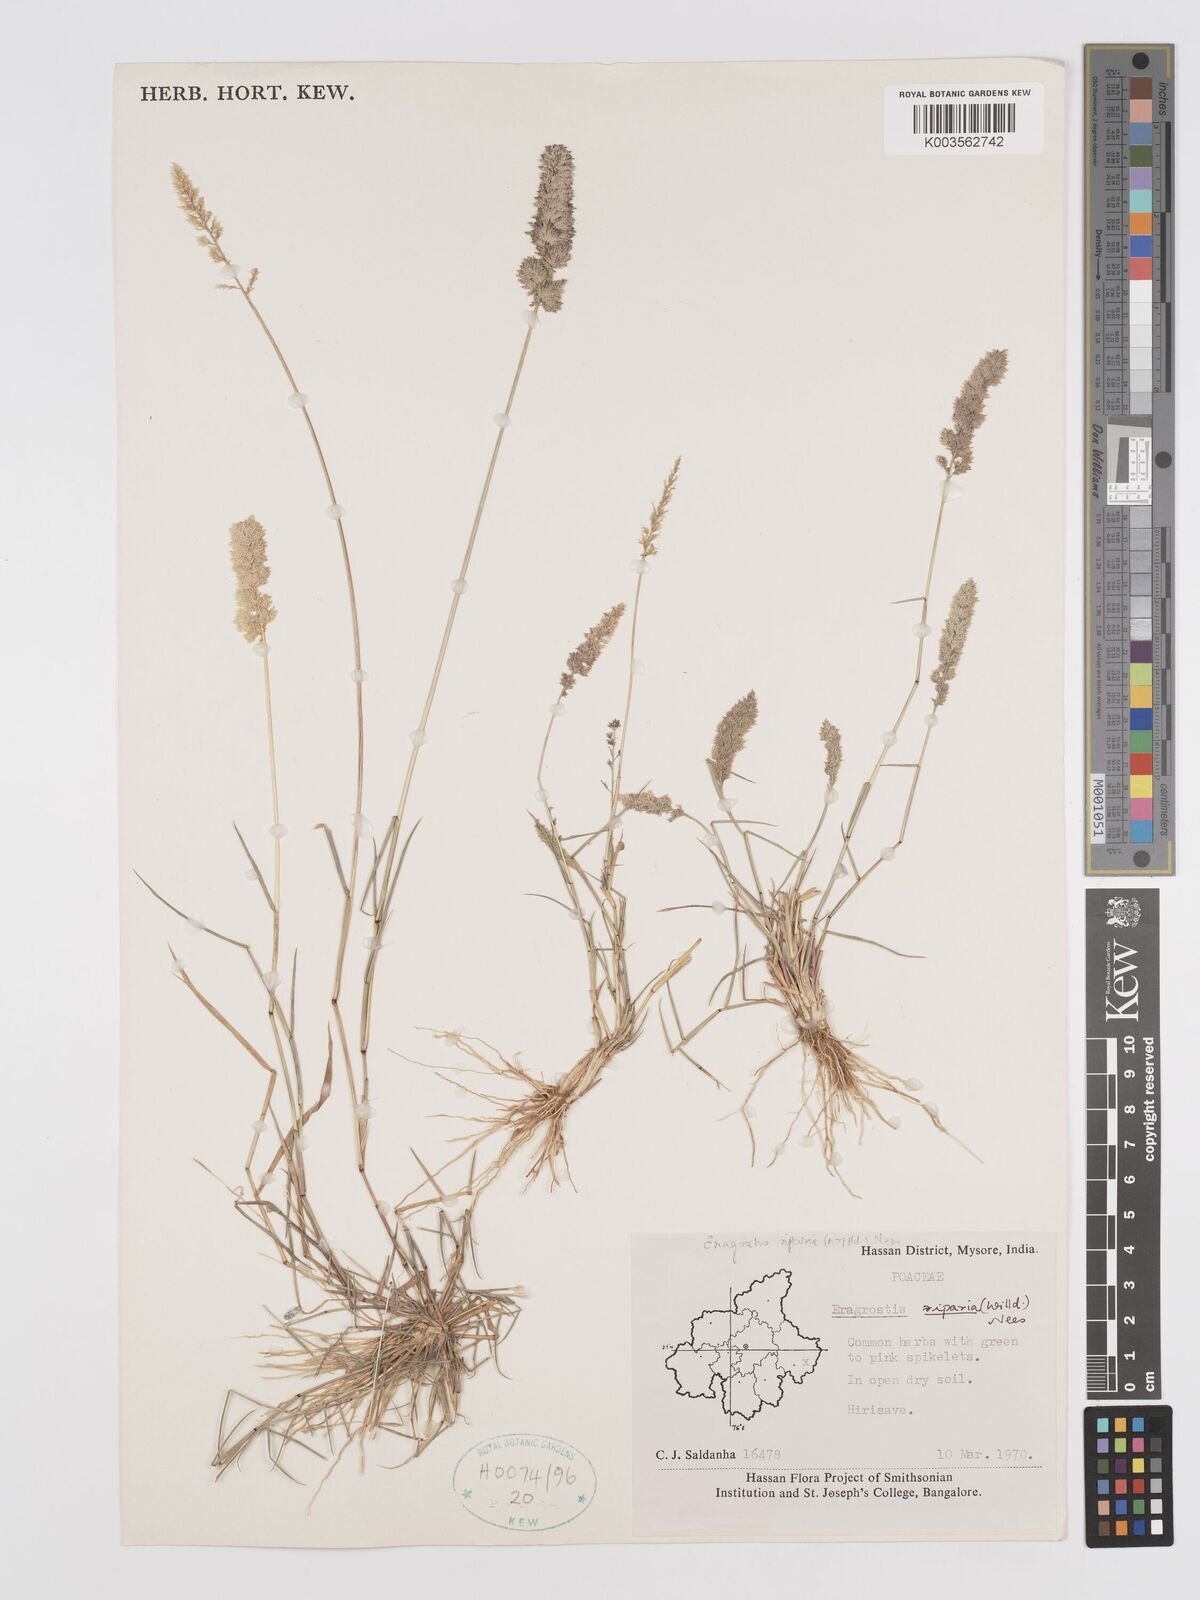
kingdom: Plantae
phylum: Tracheophyta
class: Liliopsida
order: Poales
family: Poaceae
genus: Eragrostis
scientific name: Eragrostis riparia
